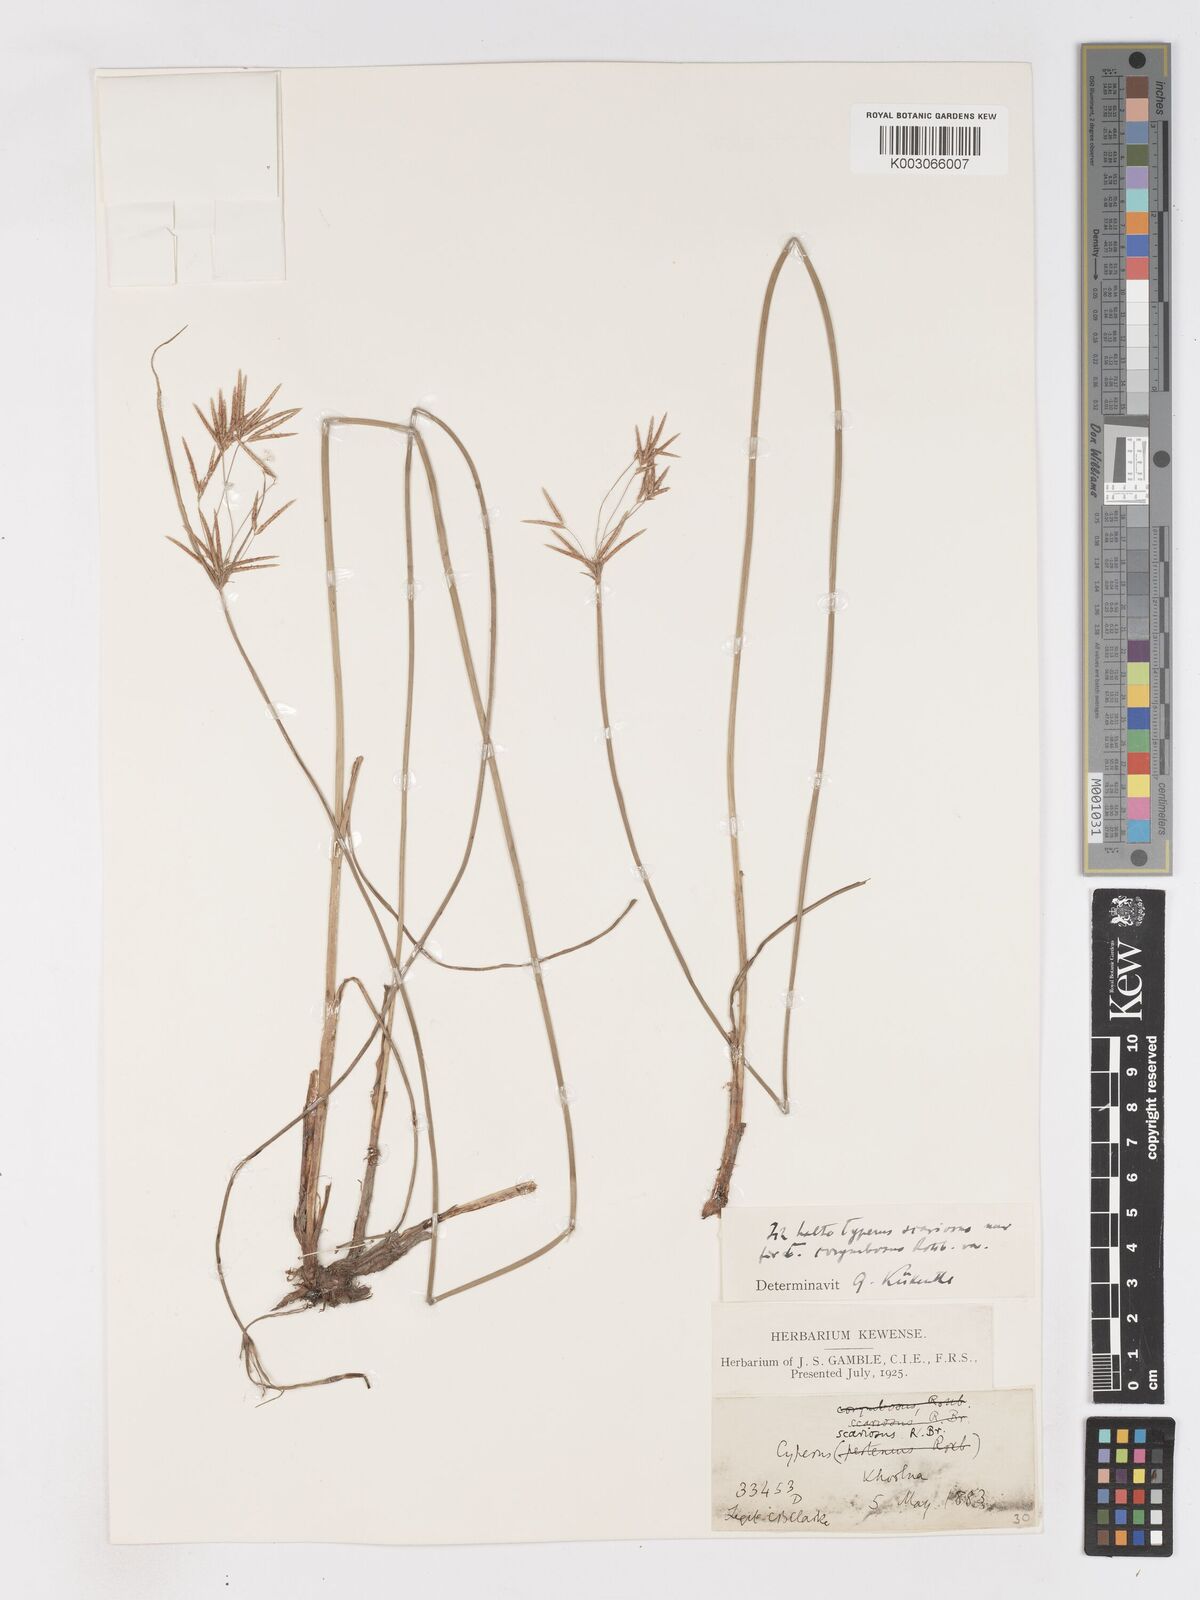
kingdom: Plantae
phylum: Tracheophyta
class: Liliopsida
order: Poales
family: Cyperaceae
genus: Cyperus
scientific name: Cyperus mitis
